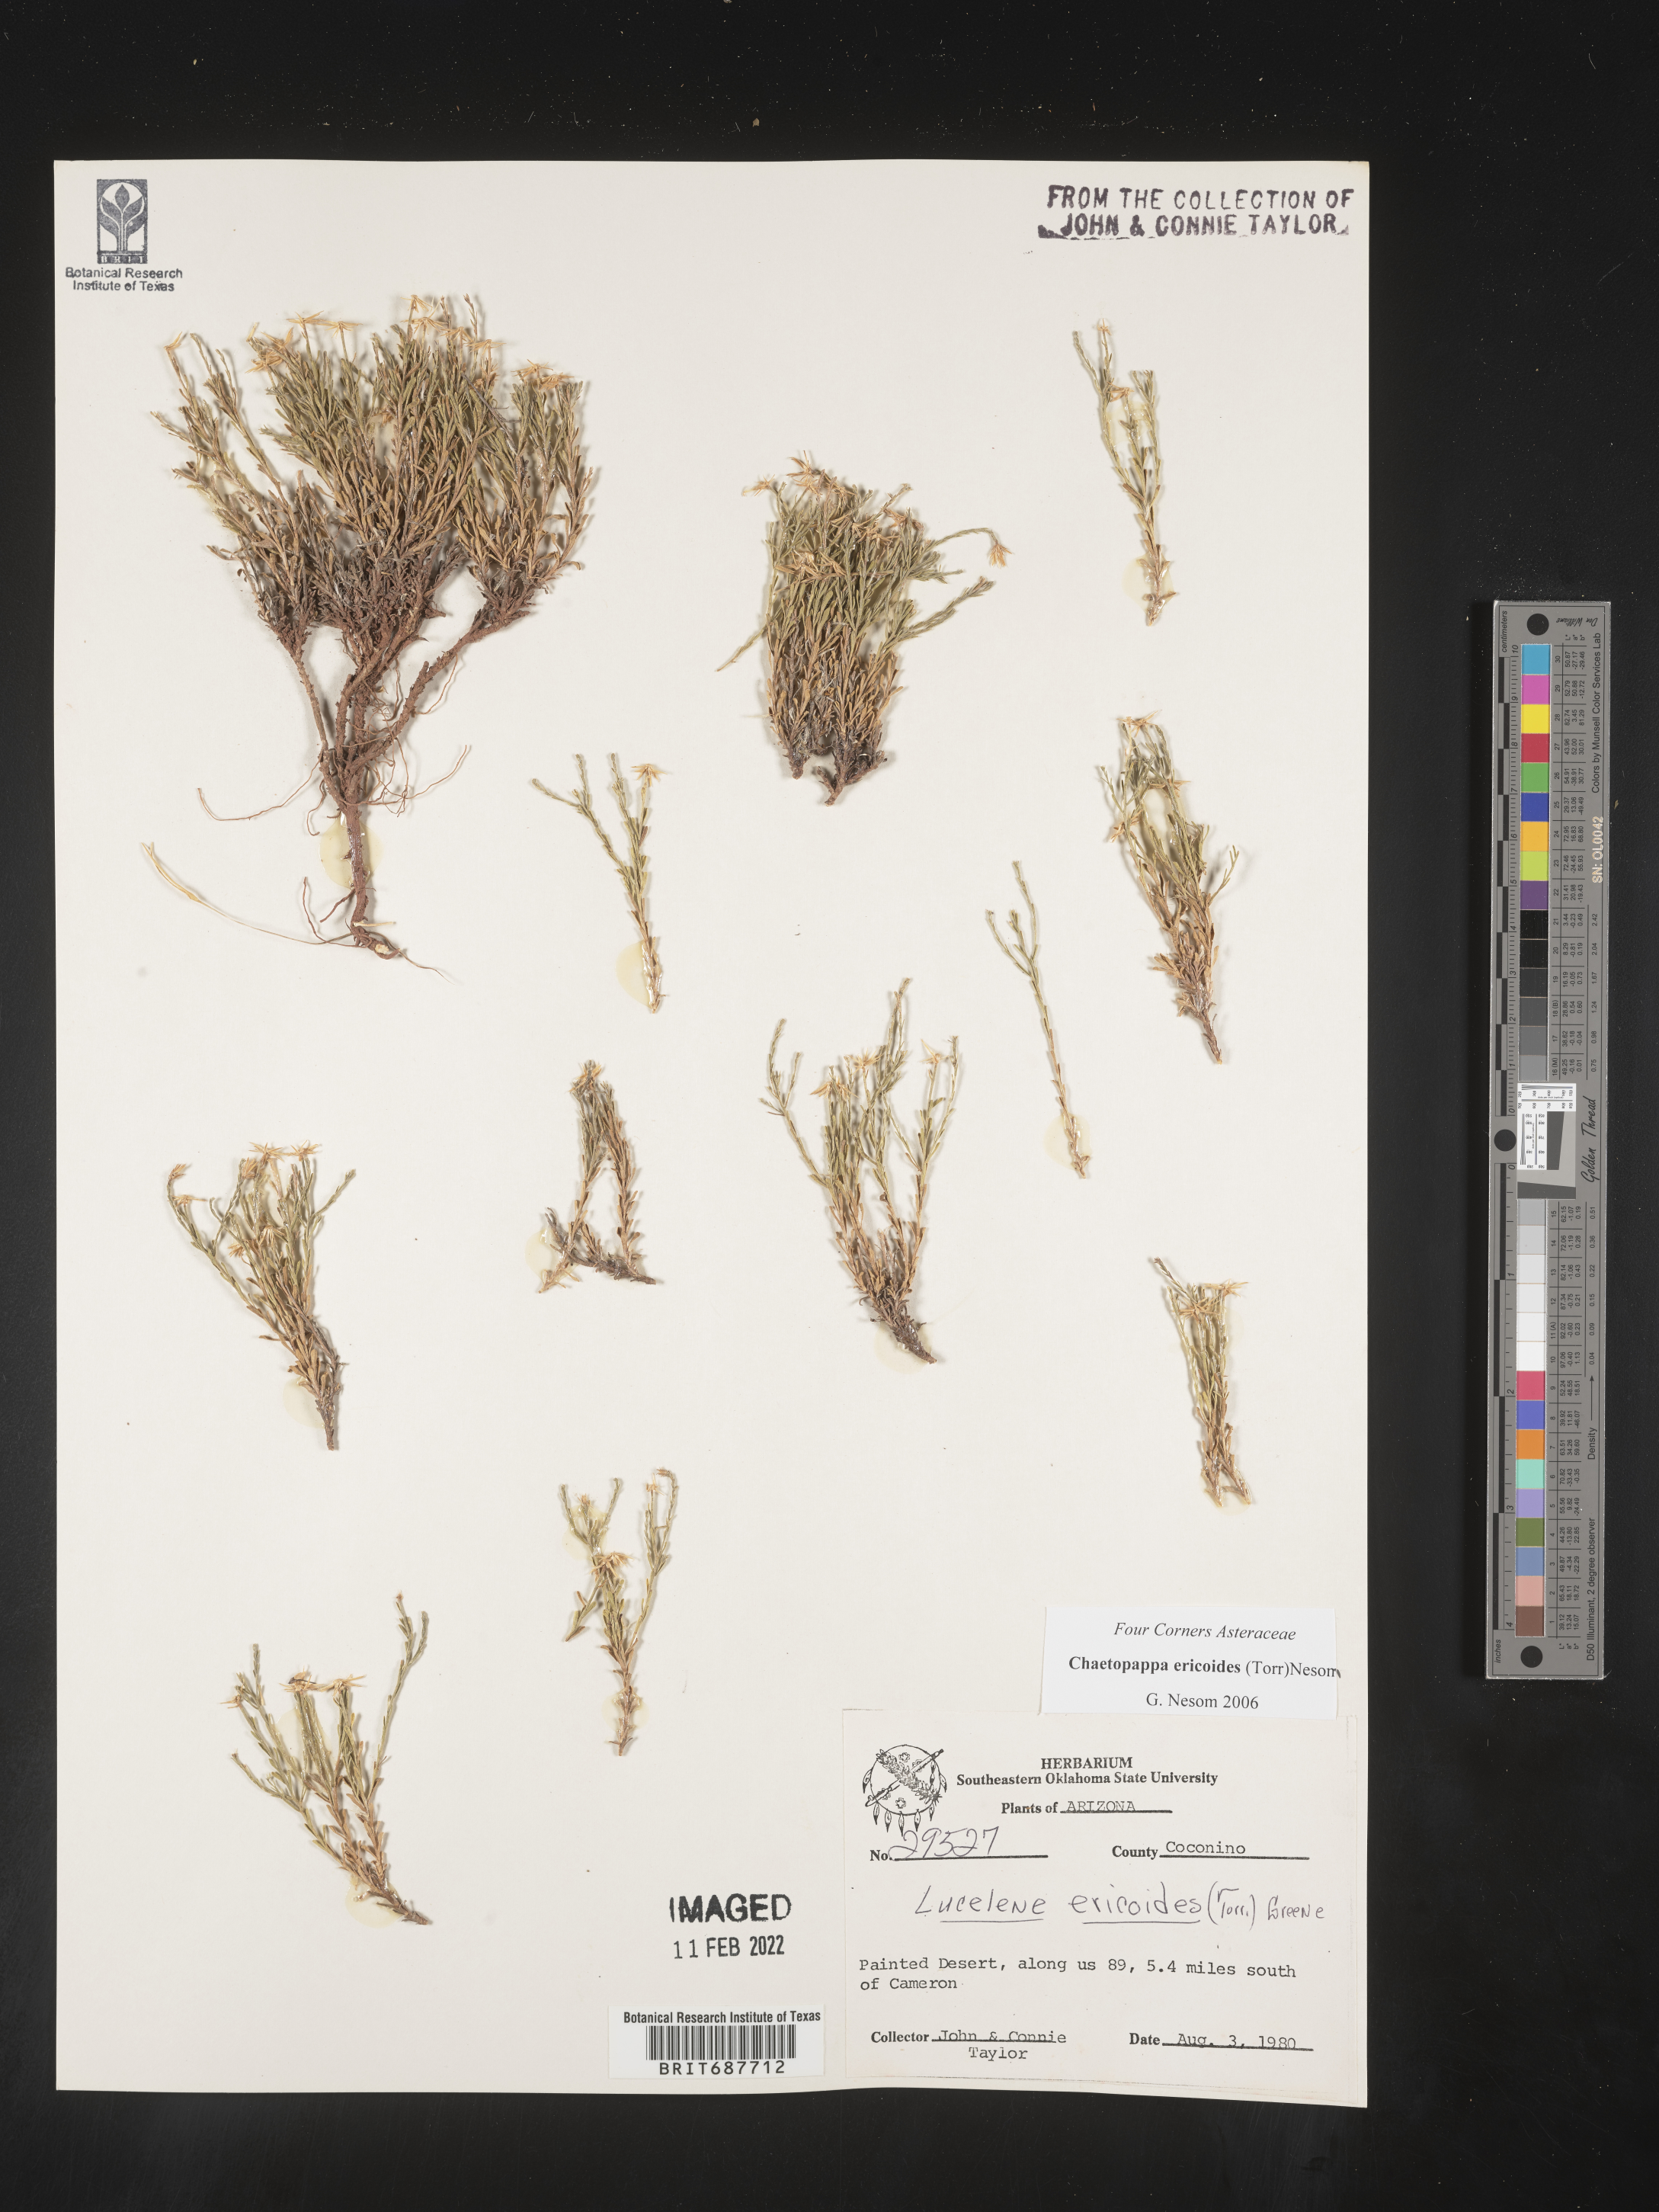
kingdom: Plantae
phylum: Tracheophyta
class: Magnoliopsida
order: Asterales
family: Asteraceae
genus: Chaetopappa
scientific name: Chaetopappa ericoides
